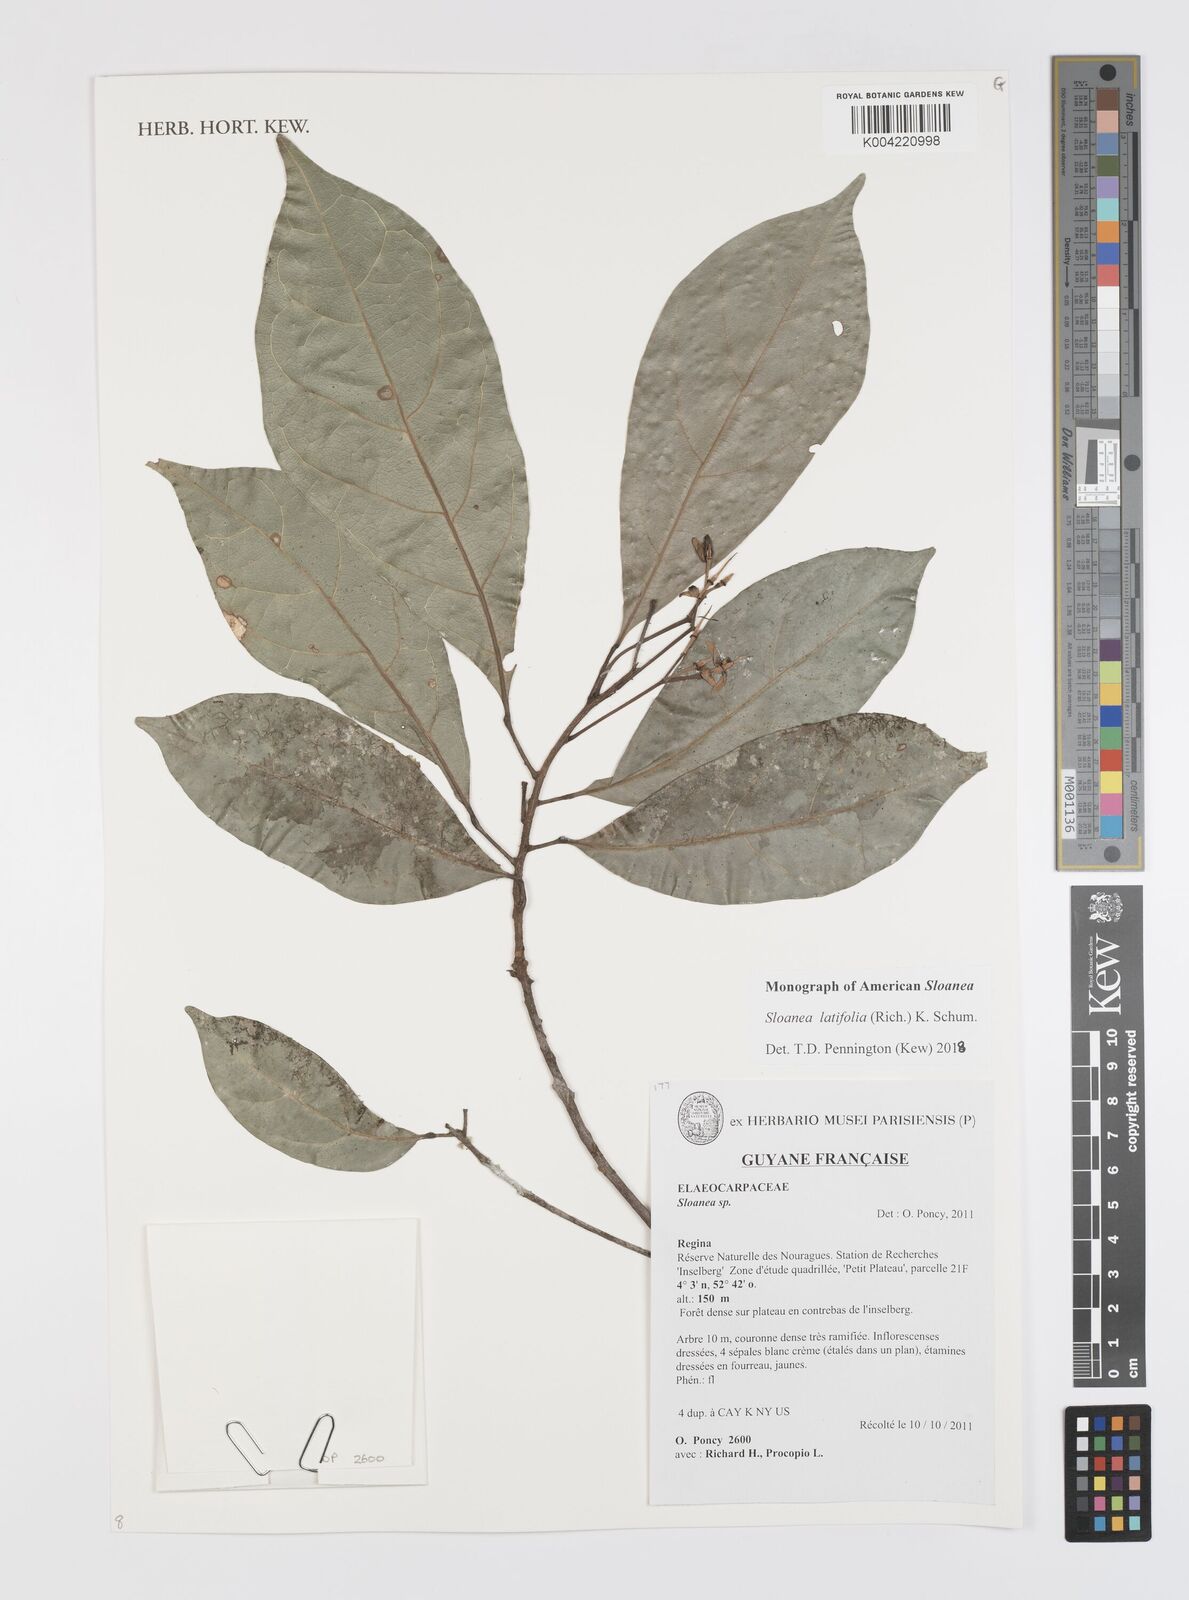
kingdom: Plantae
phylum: Tracheophyta
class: Magnoliopsida
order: Oxalidales
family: Elaeocarpaceae
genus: Sloanea
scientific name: Sloanea latifolia
